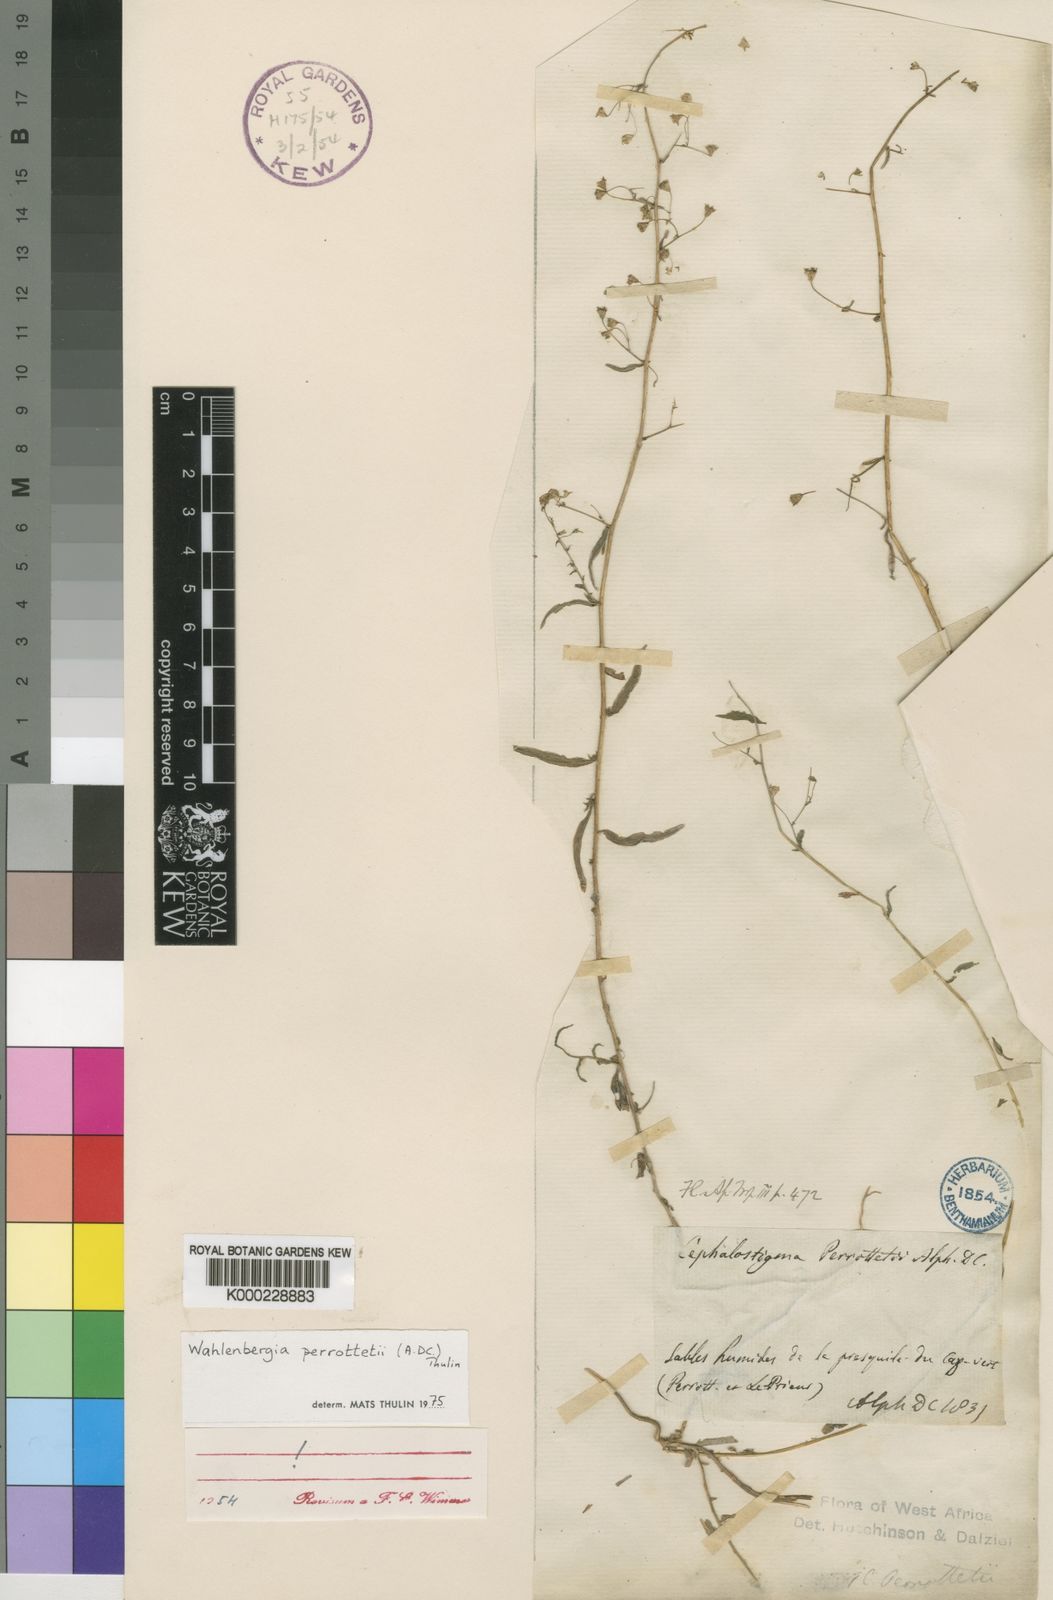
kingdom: Plantae
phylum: Tracheophyta
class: Magnoliopsida
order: Asterales
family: Campanulaceae
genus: Wahlenbergia
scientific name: Wahlenbergia perrottetii
